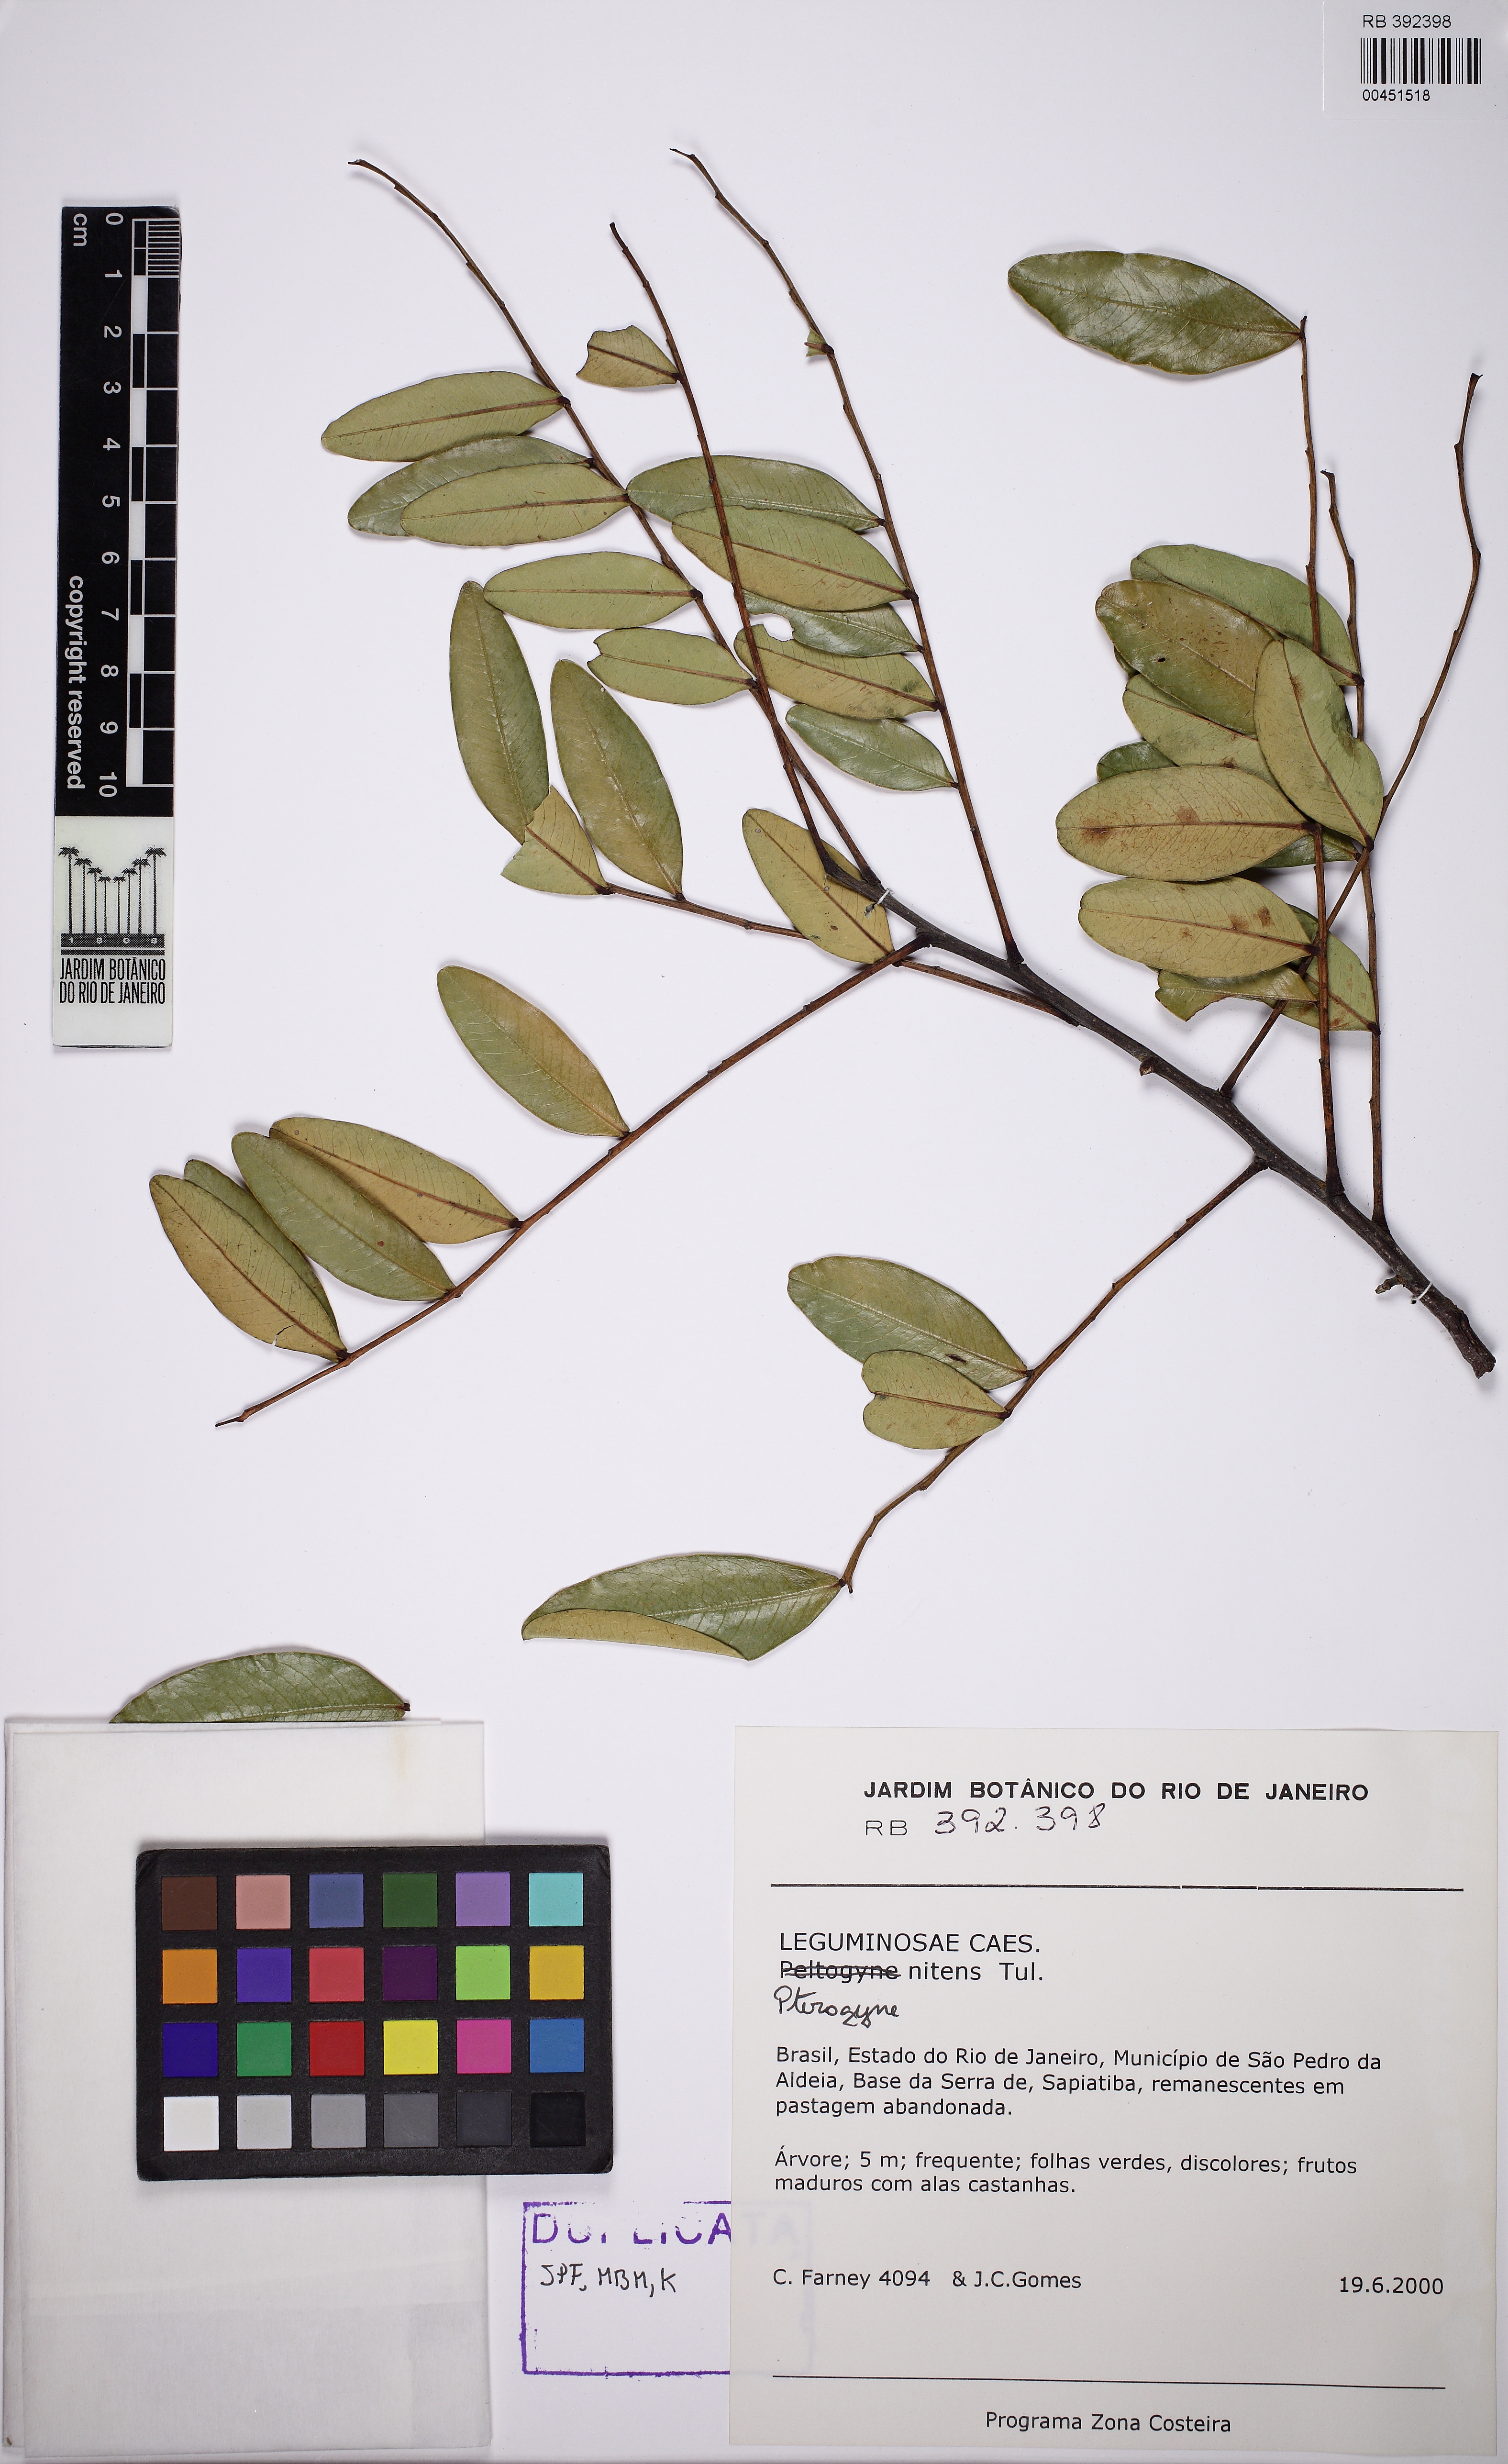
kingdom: Plantae
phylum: Tracheophyta
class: Magnoliopsida
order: Fabales
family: Fabaceae
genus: Pterogyne
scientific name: Pterogyne nitens
